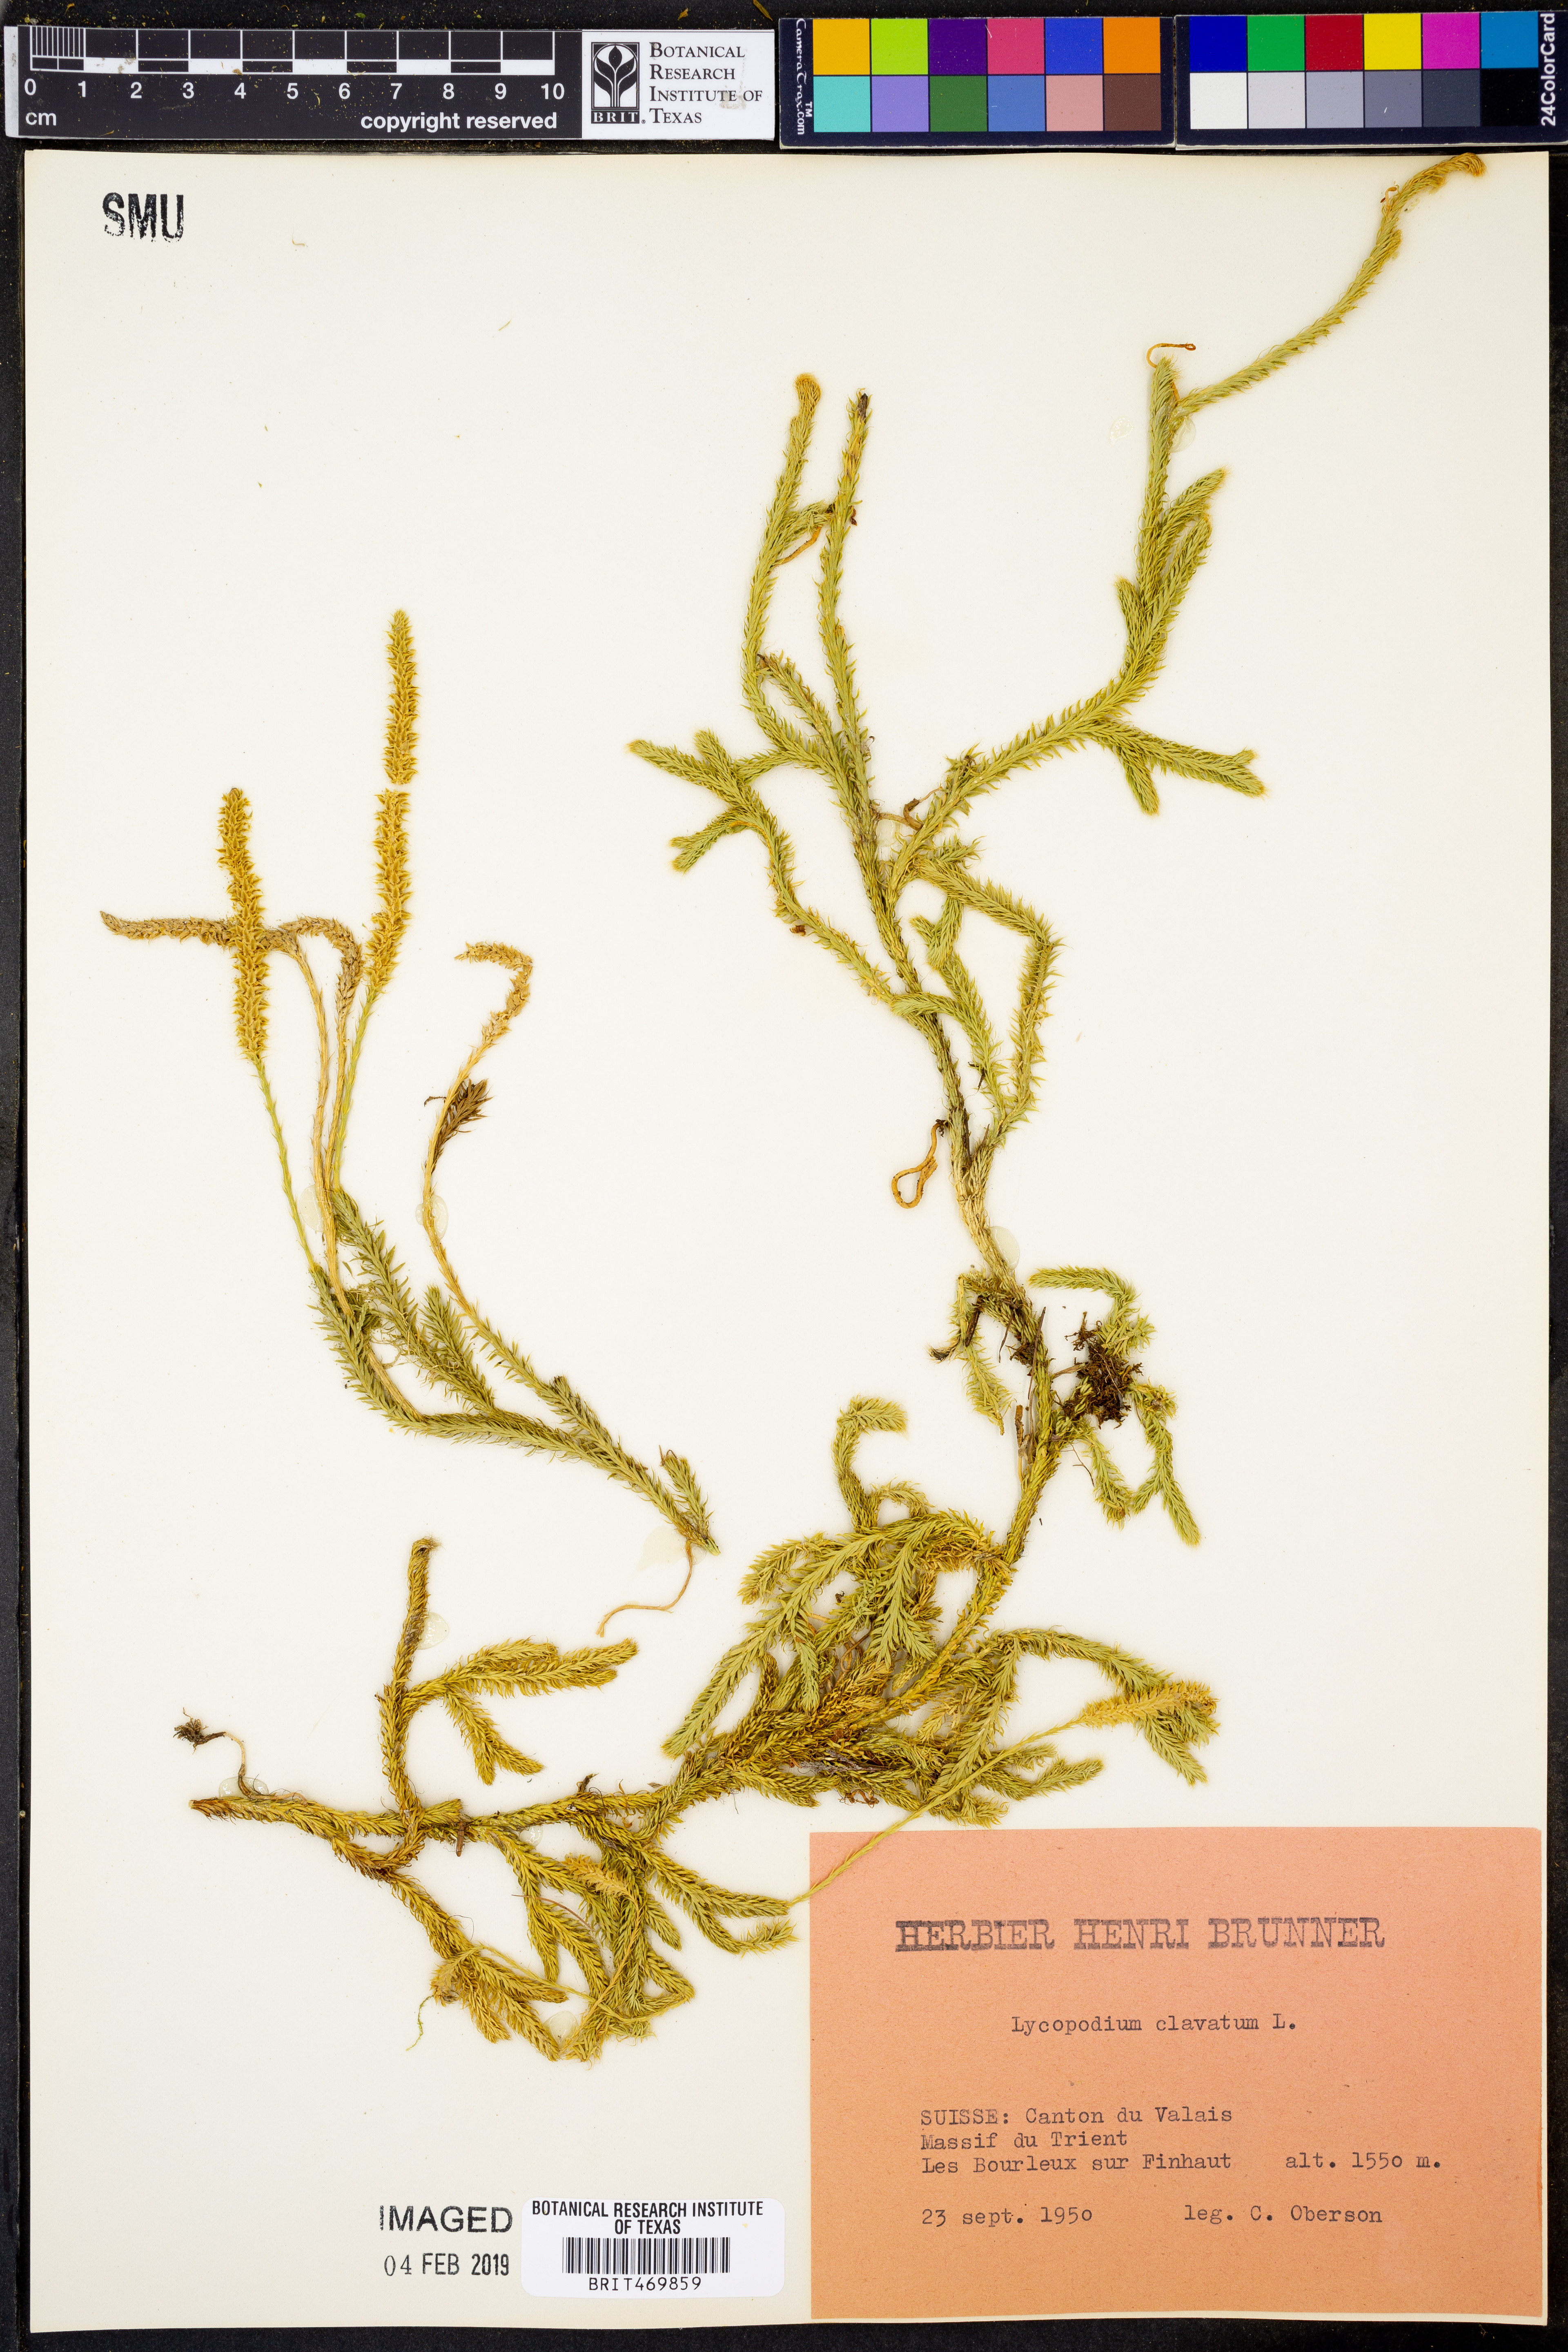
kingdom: Plantae
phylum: Tracheophyta
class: Lycopodiopsida
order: Lycopodiales
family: Lycopodiaceae
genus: Lycopodium
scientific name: Lycopodium clavatum
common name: Stag's-horn clubmoss
